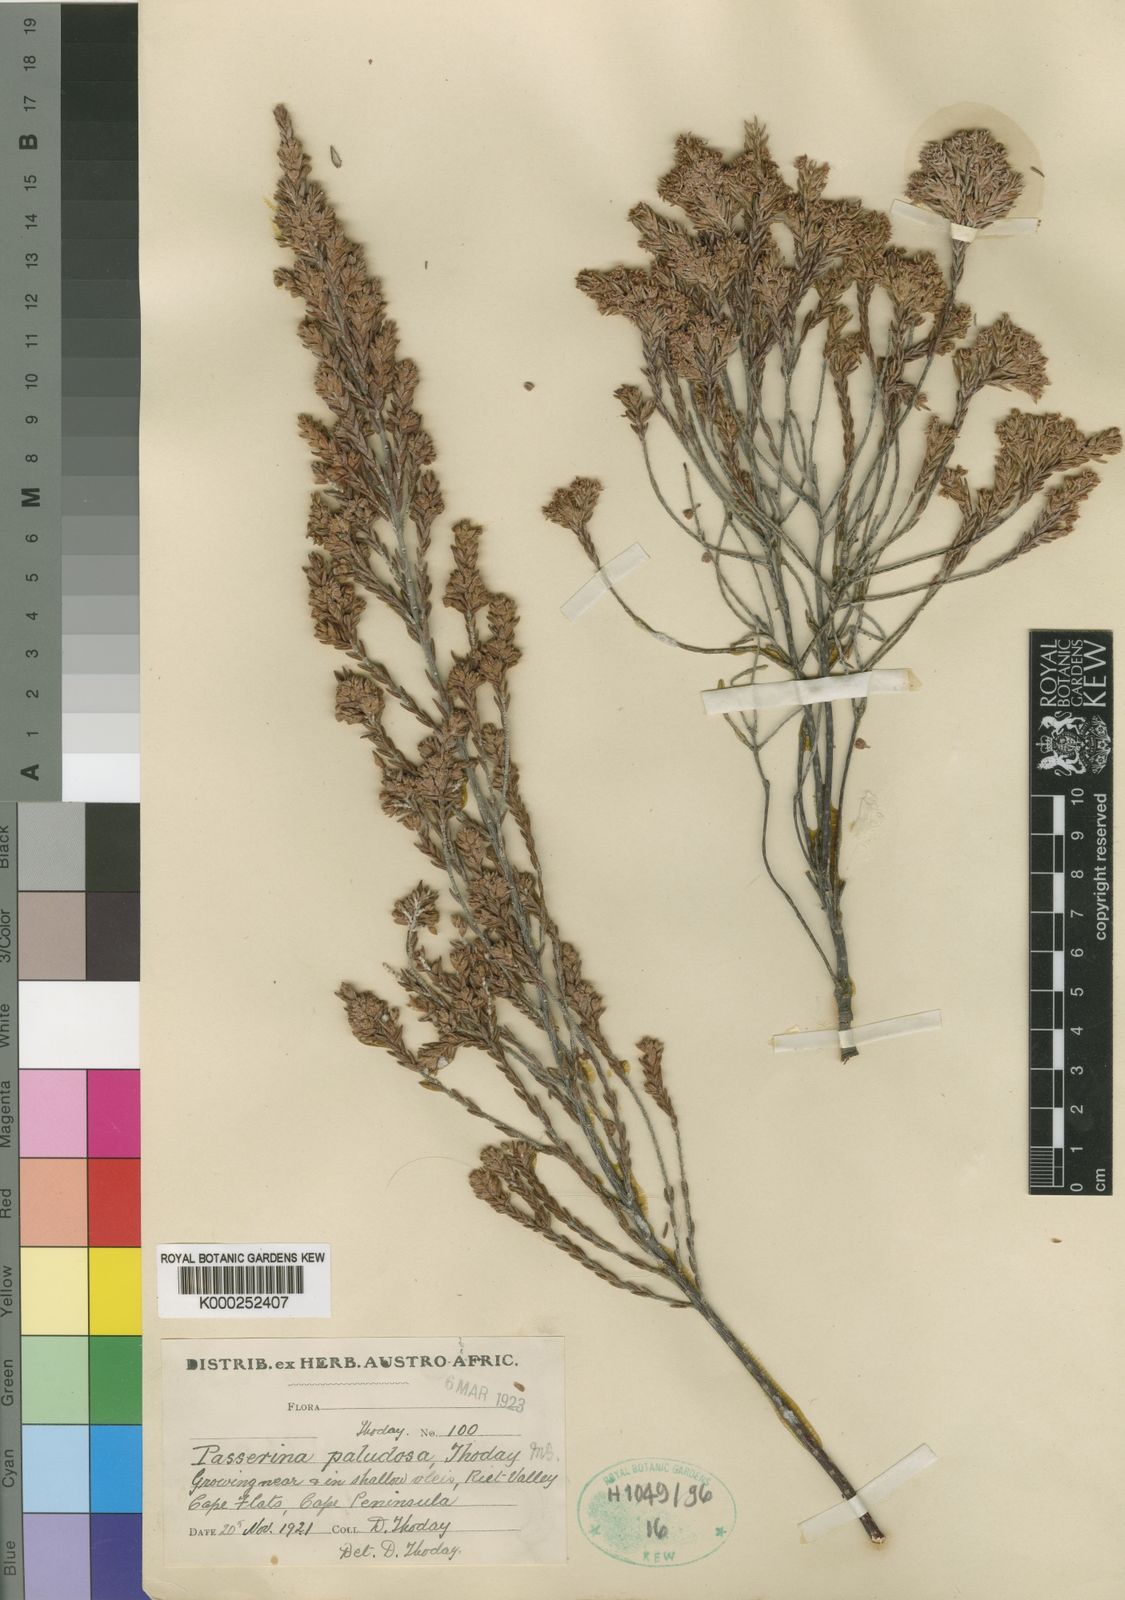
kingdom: Plantae
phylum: Tracheophyta
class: Magnoliopsida
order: Malvales
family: Thymelaeaceae
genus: Passerina
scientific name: Passerina paludosa
